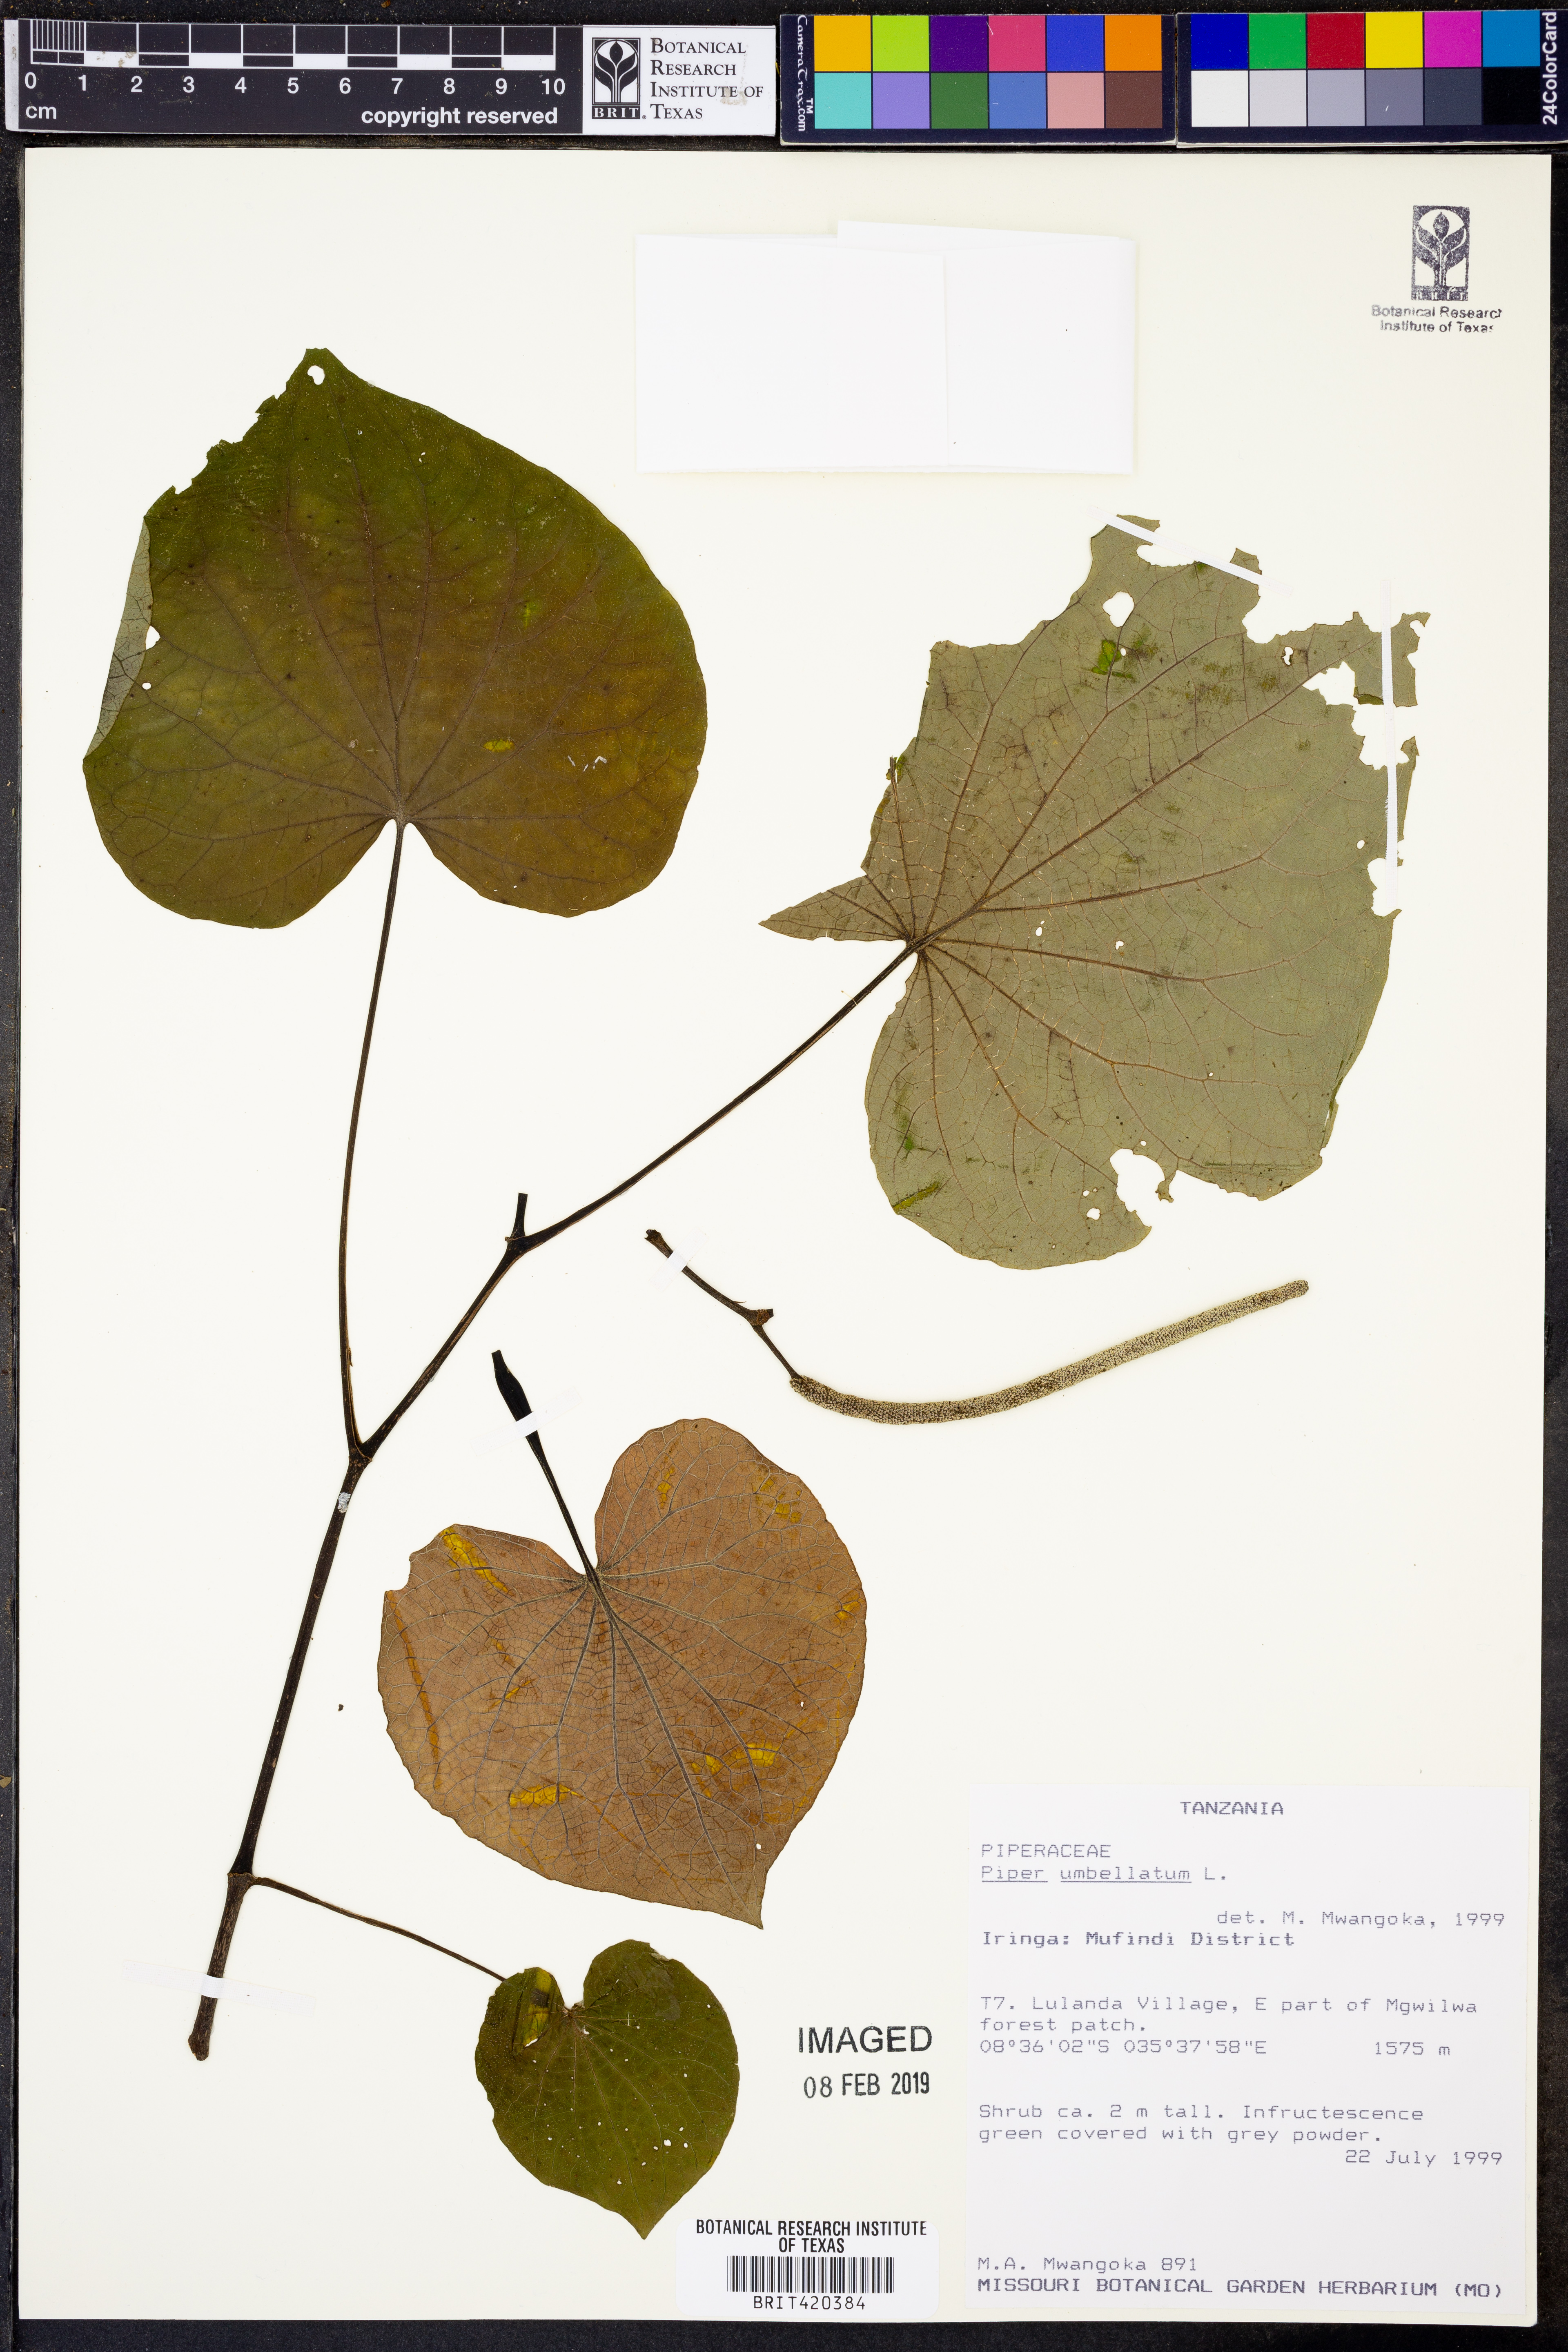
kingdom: Plantae
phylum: Tracheophyta
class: Magnoliopsida
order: Piperales
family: Piperaceae
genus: Piper
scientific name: Piper umbellatum
